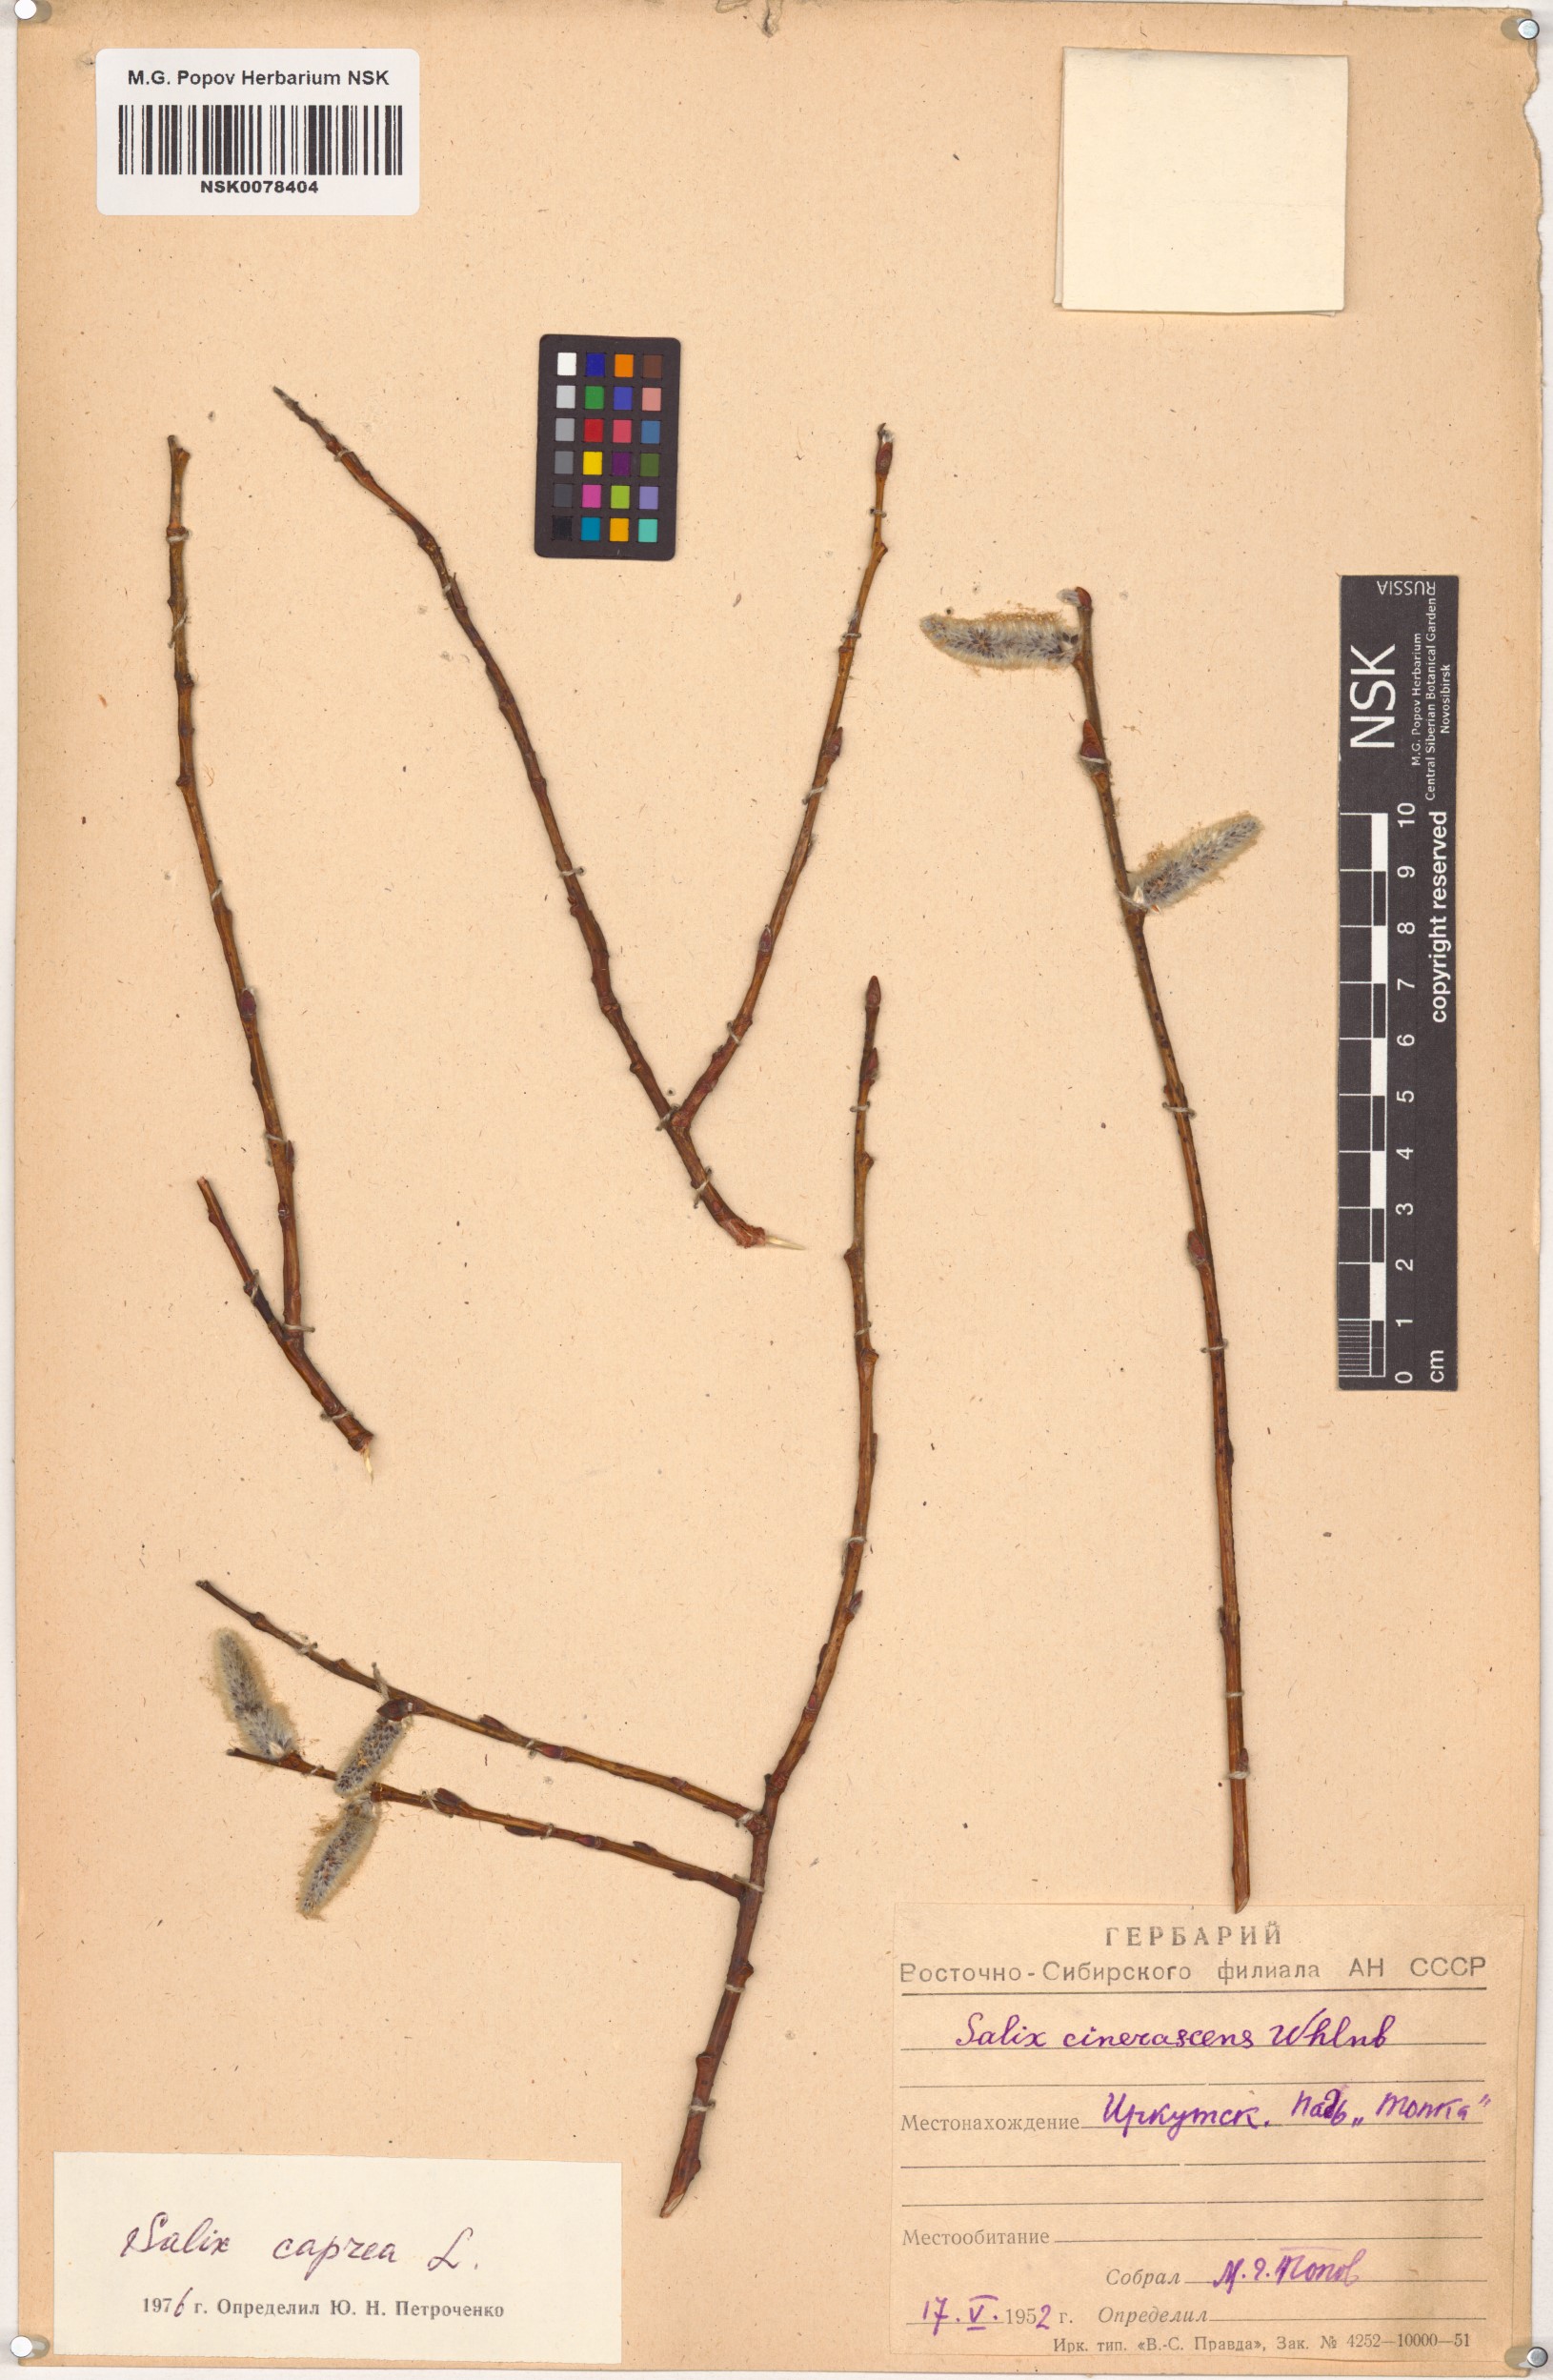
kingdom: Plantae
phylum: Tracheophyta
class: Magnoliopsida
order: Malpighiales
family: Salicaceae
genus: Salix
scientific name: Salix caprea
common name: Goat willow
